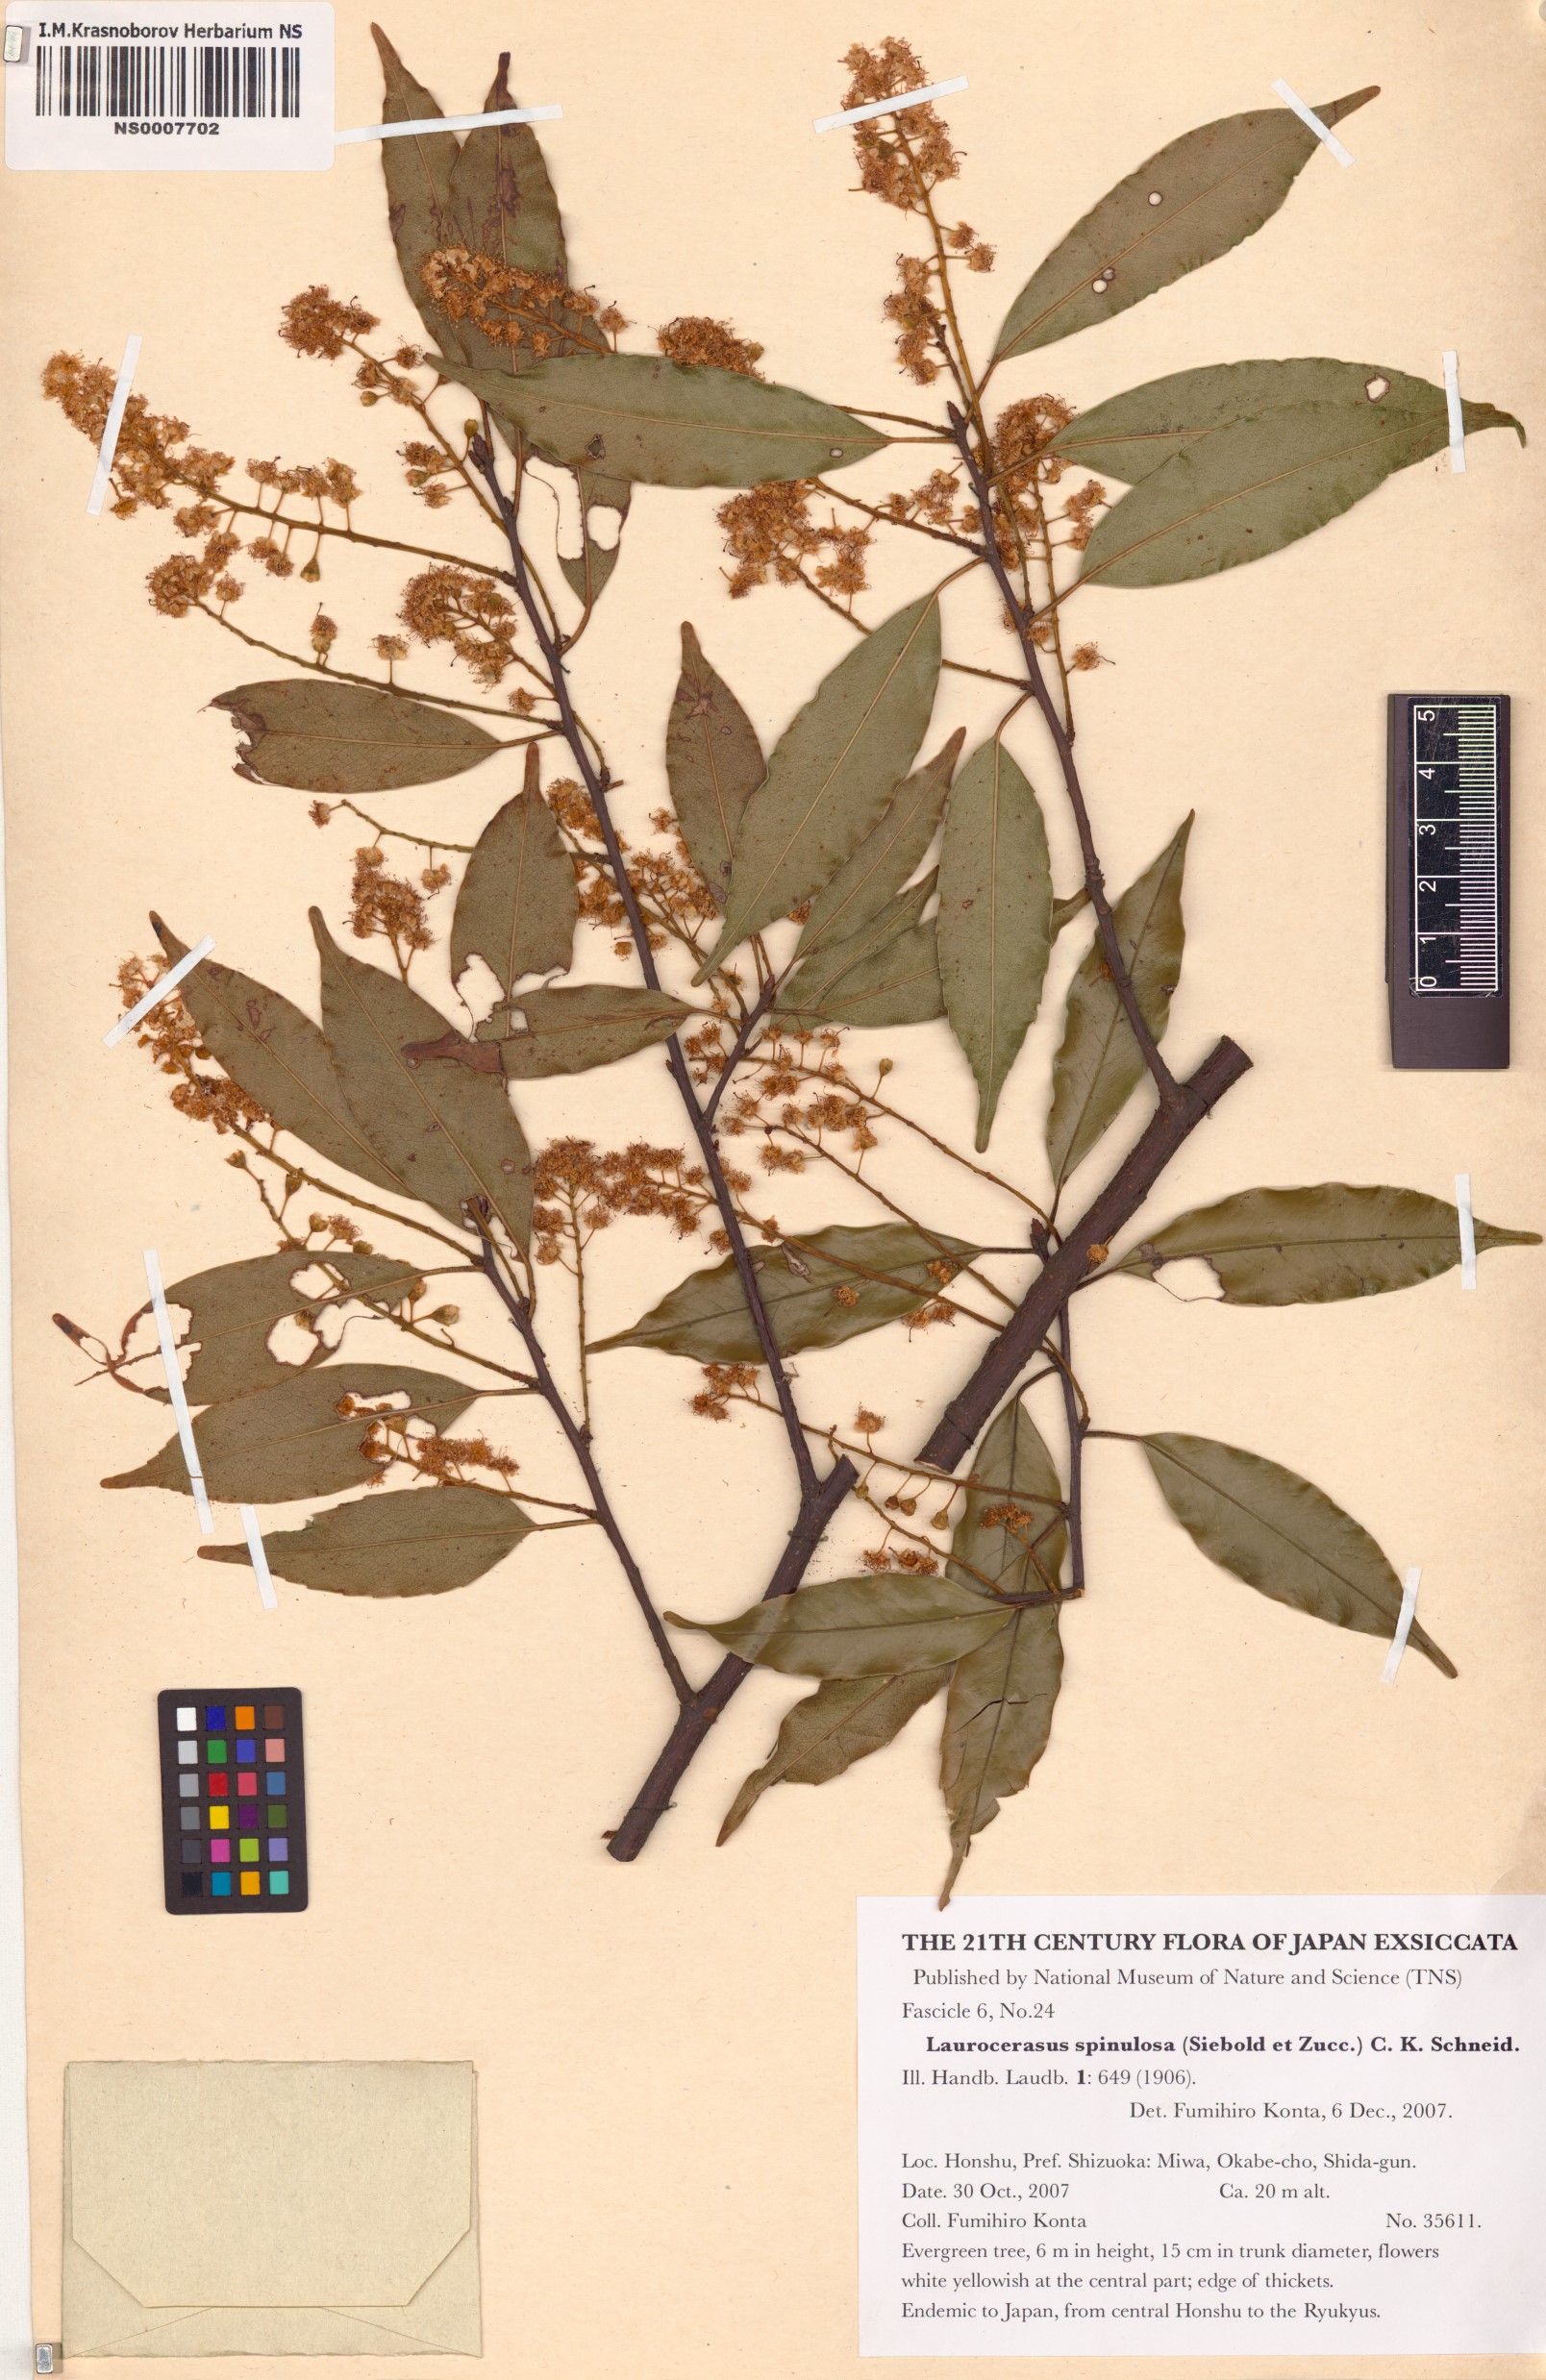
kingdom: Plantae
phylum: Tracheophyta
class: Magnoliopsida
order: Rosales
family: Rosaceae
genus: Prunus
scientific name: Prunus spinulosa
